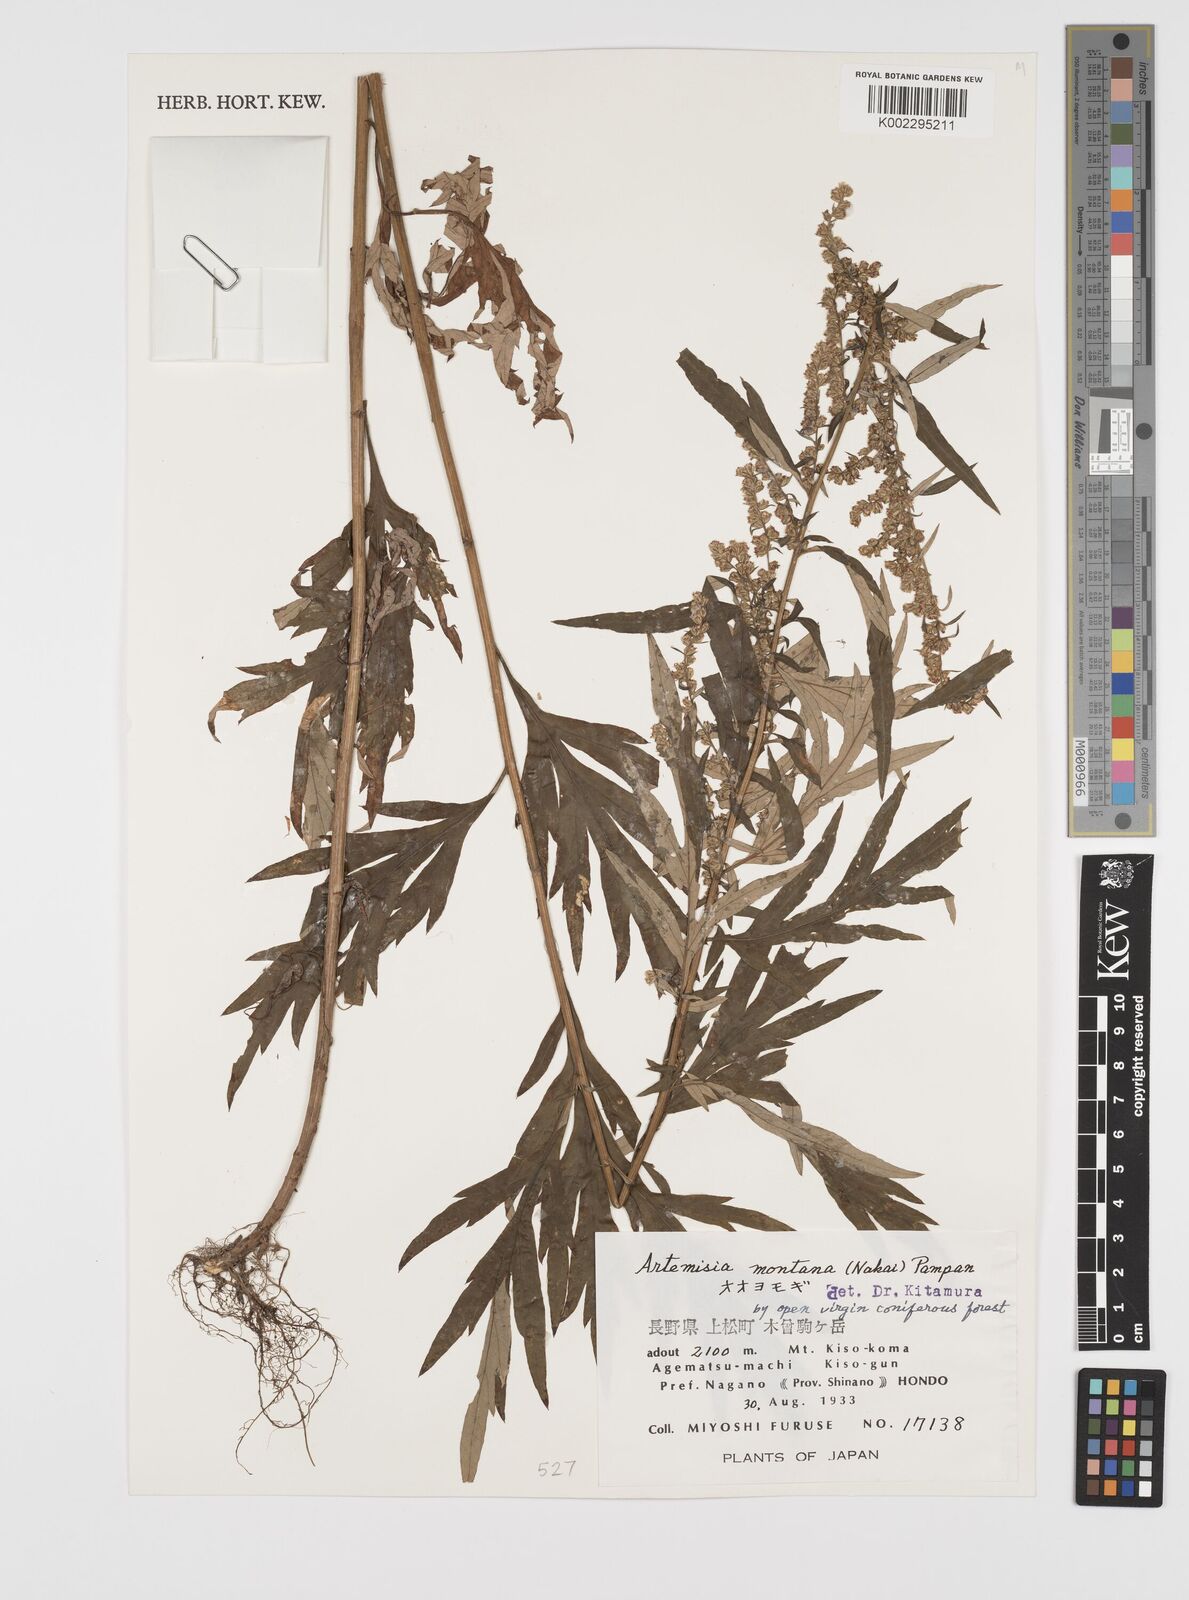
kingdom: Plantae
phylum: Tracheophyta
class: Magnoliopsida
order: Asterales
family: Asteraceae
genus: Artemisia
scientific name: Artemisia montana
